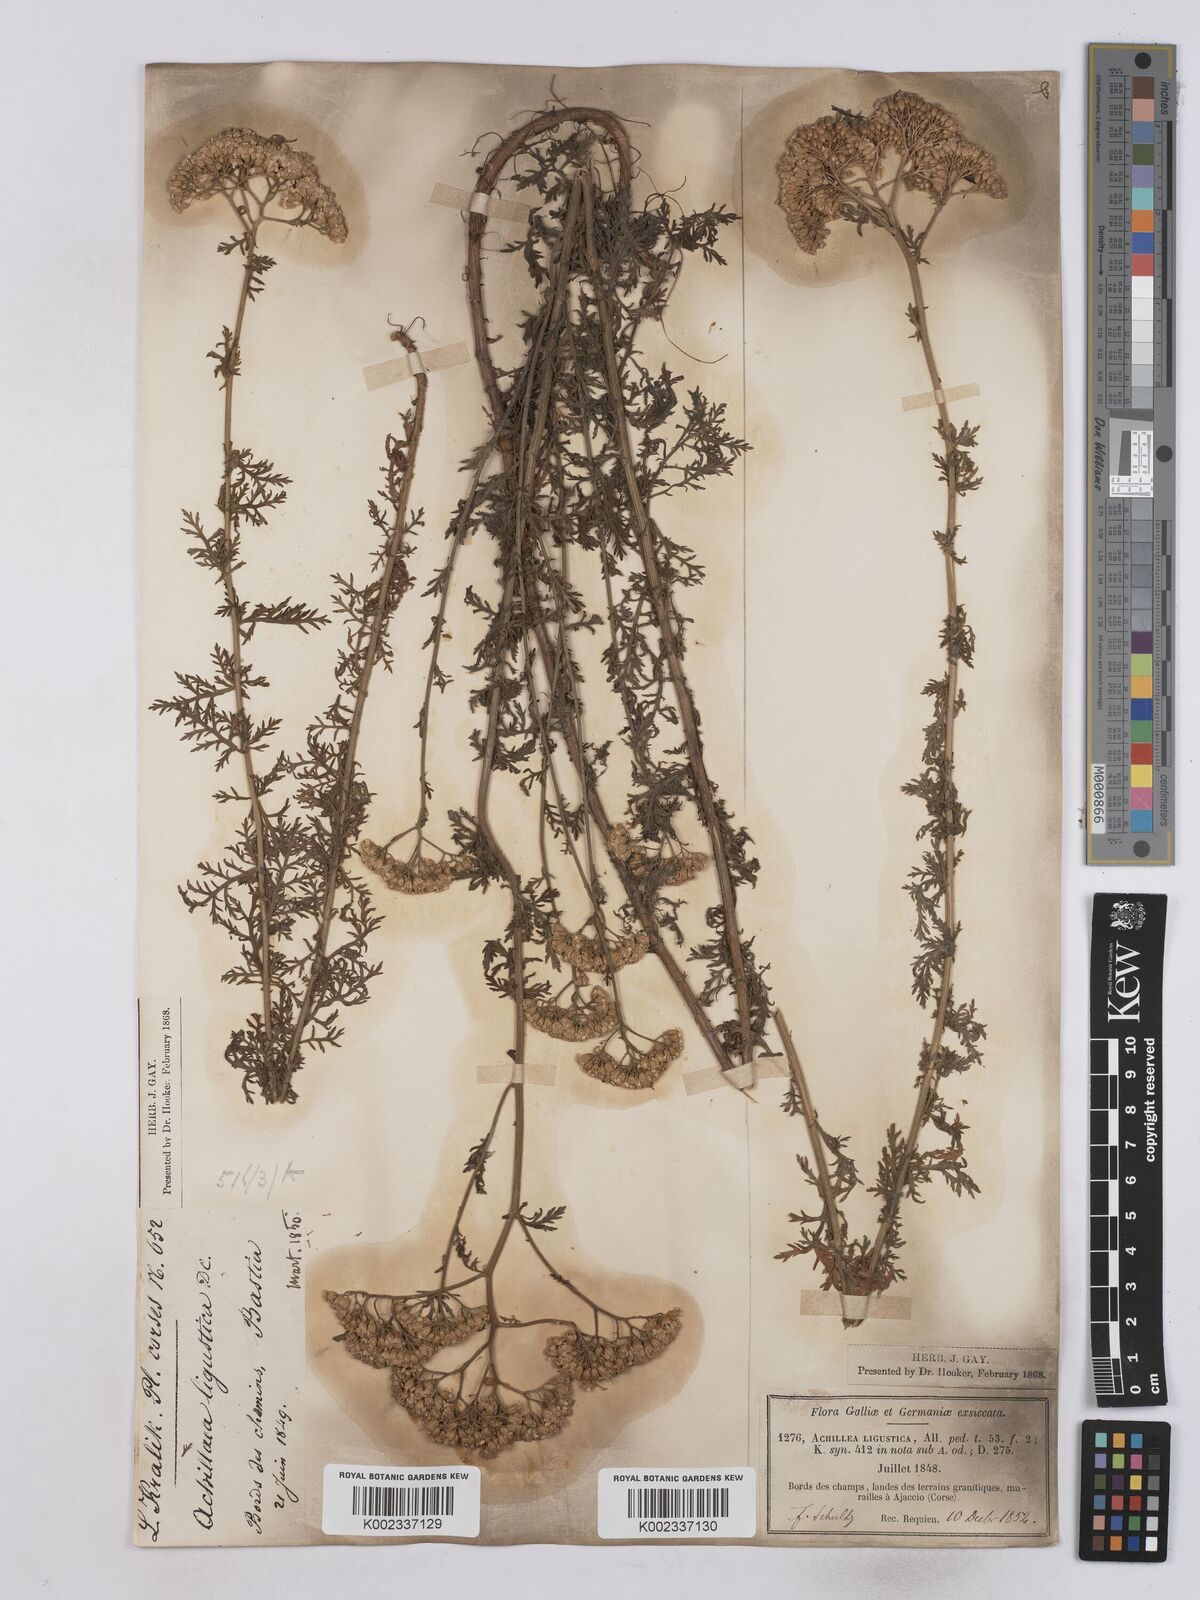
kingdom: Plantae
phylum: Tracheophyta
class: Magnoliopsida
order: Asterales
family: Asteraceae
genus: Achillea
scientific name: Achillea ligustica
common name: Southern yarrow
